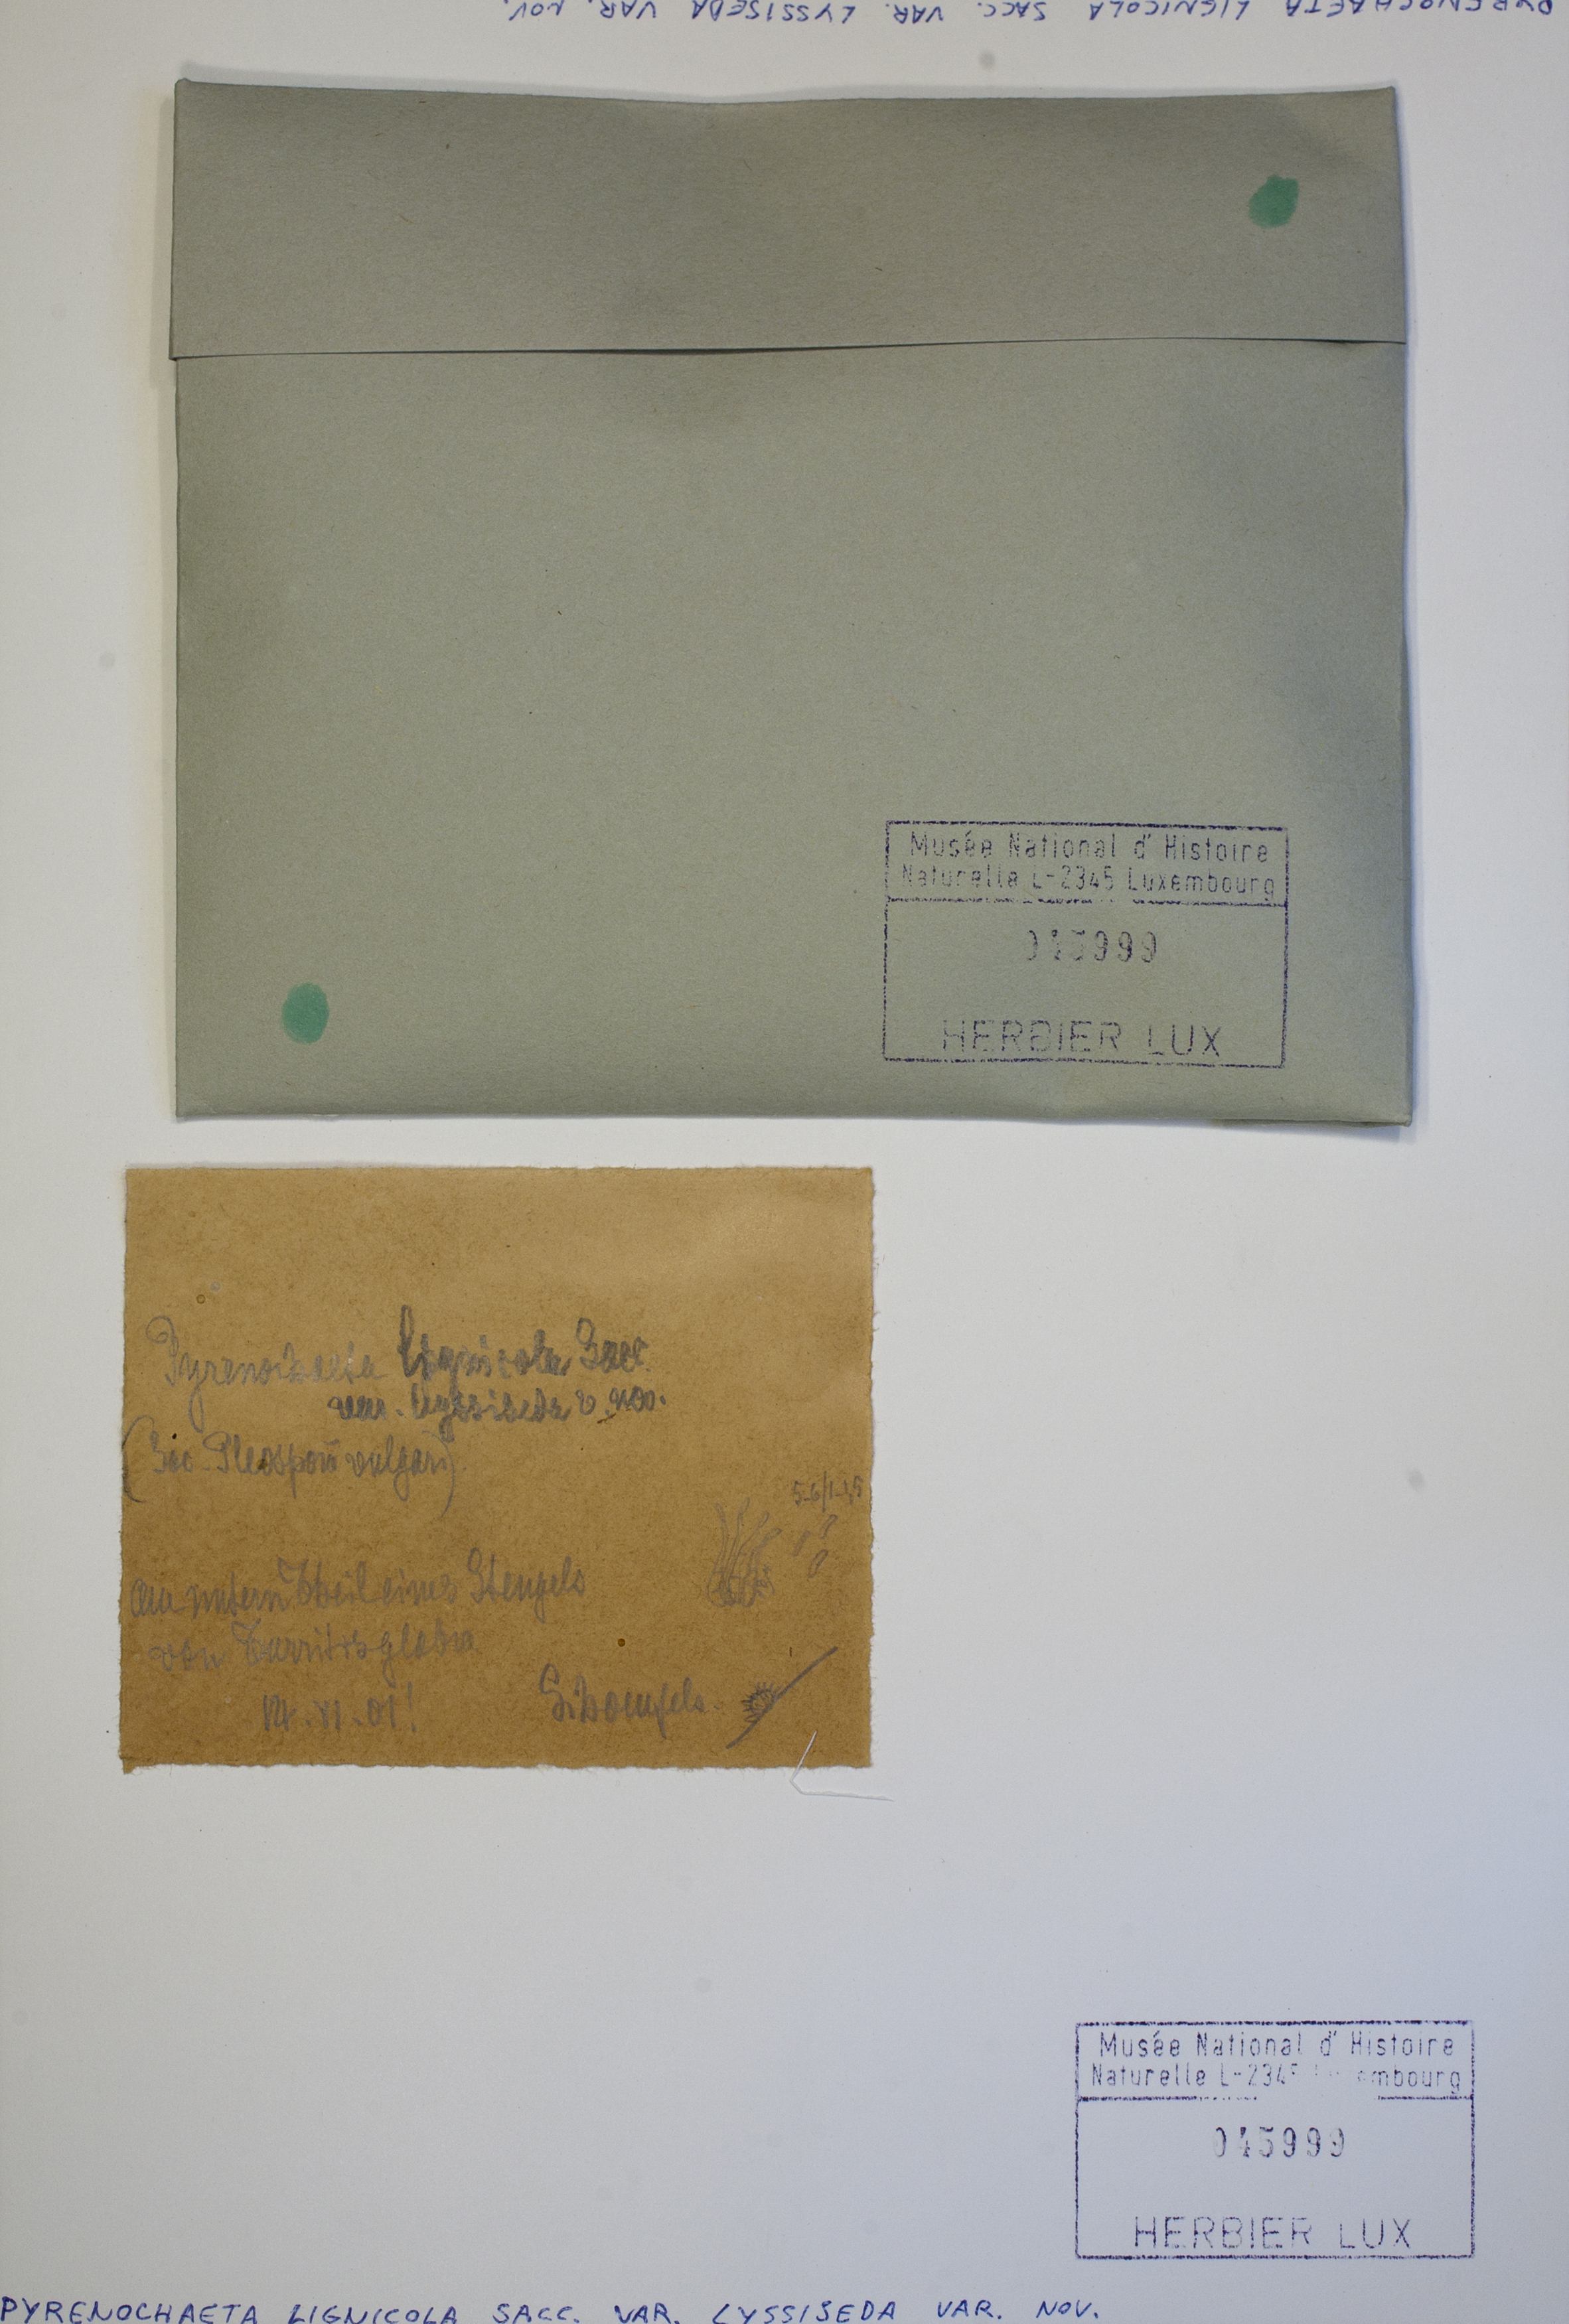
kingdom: Fungi
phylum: Ascomycota
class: Dothideomycetes
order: Pleosporales
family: Cucurbitariaceae
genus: Pyrenochaeta
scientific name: Pyrenochaeta
